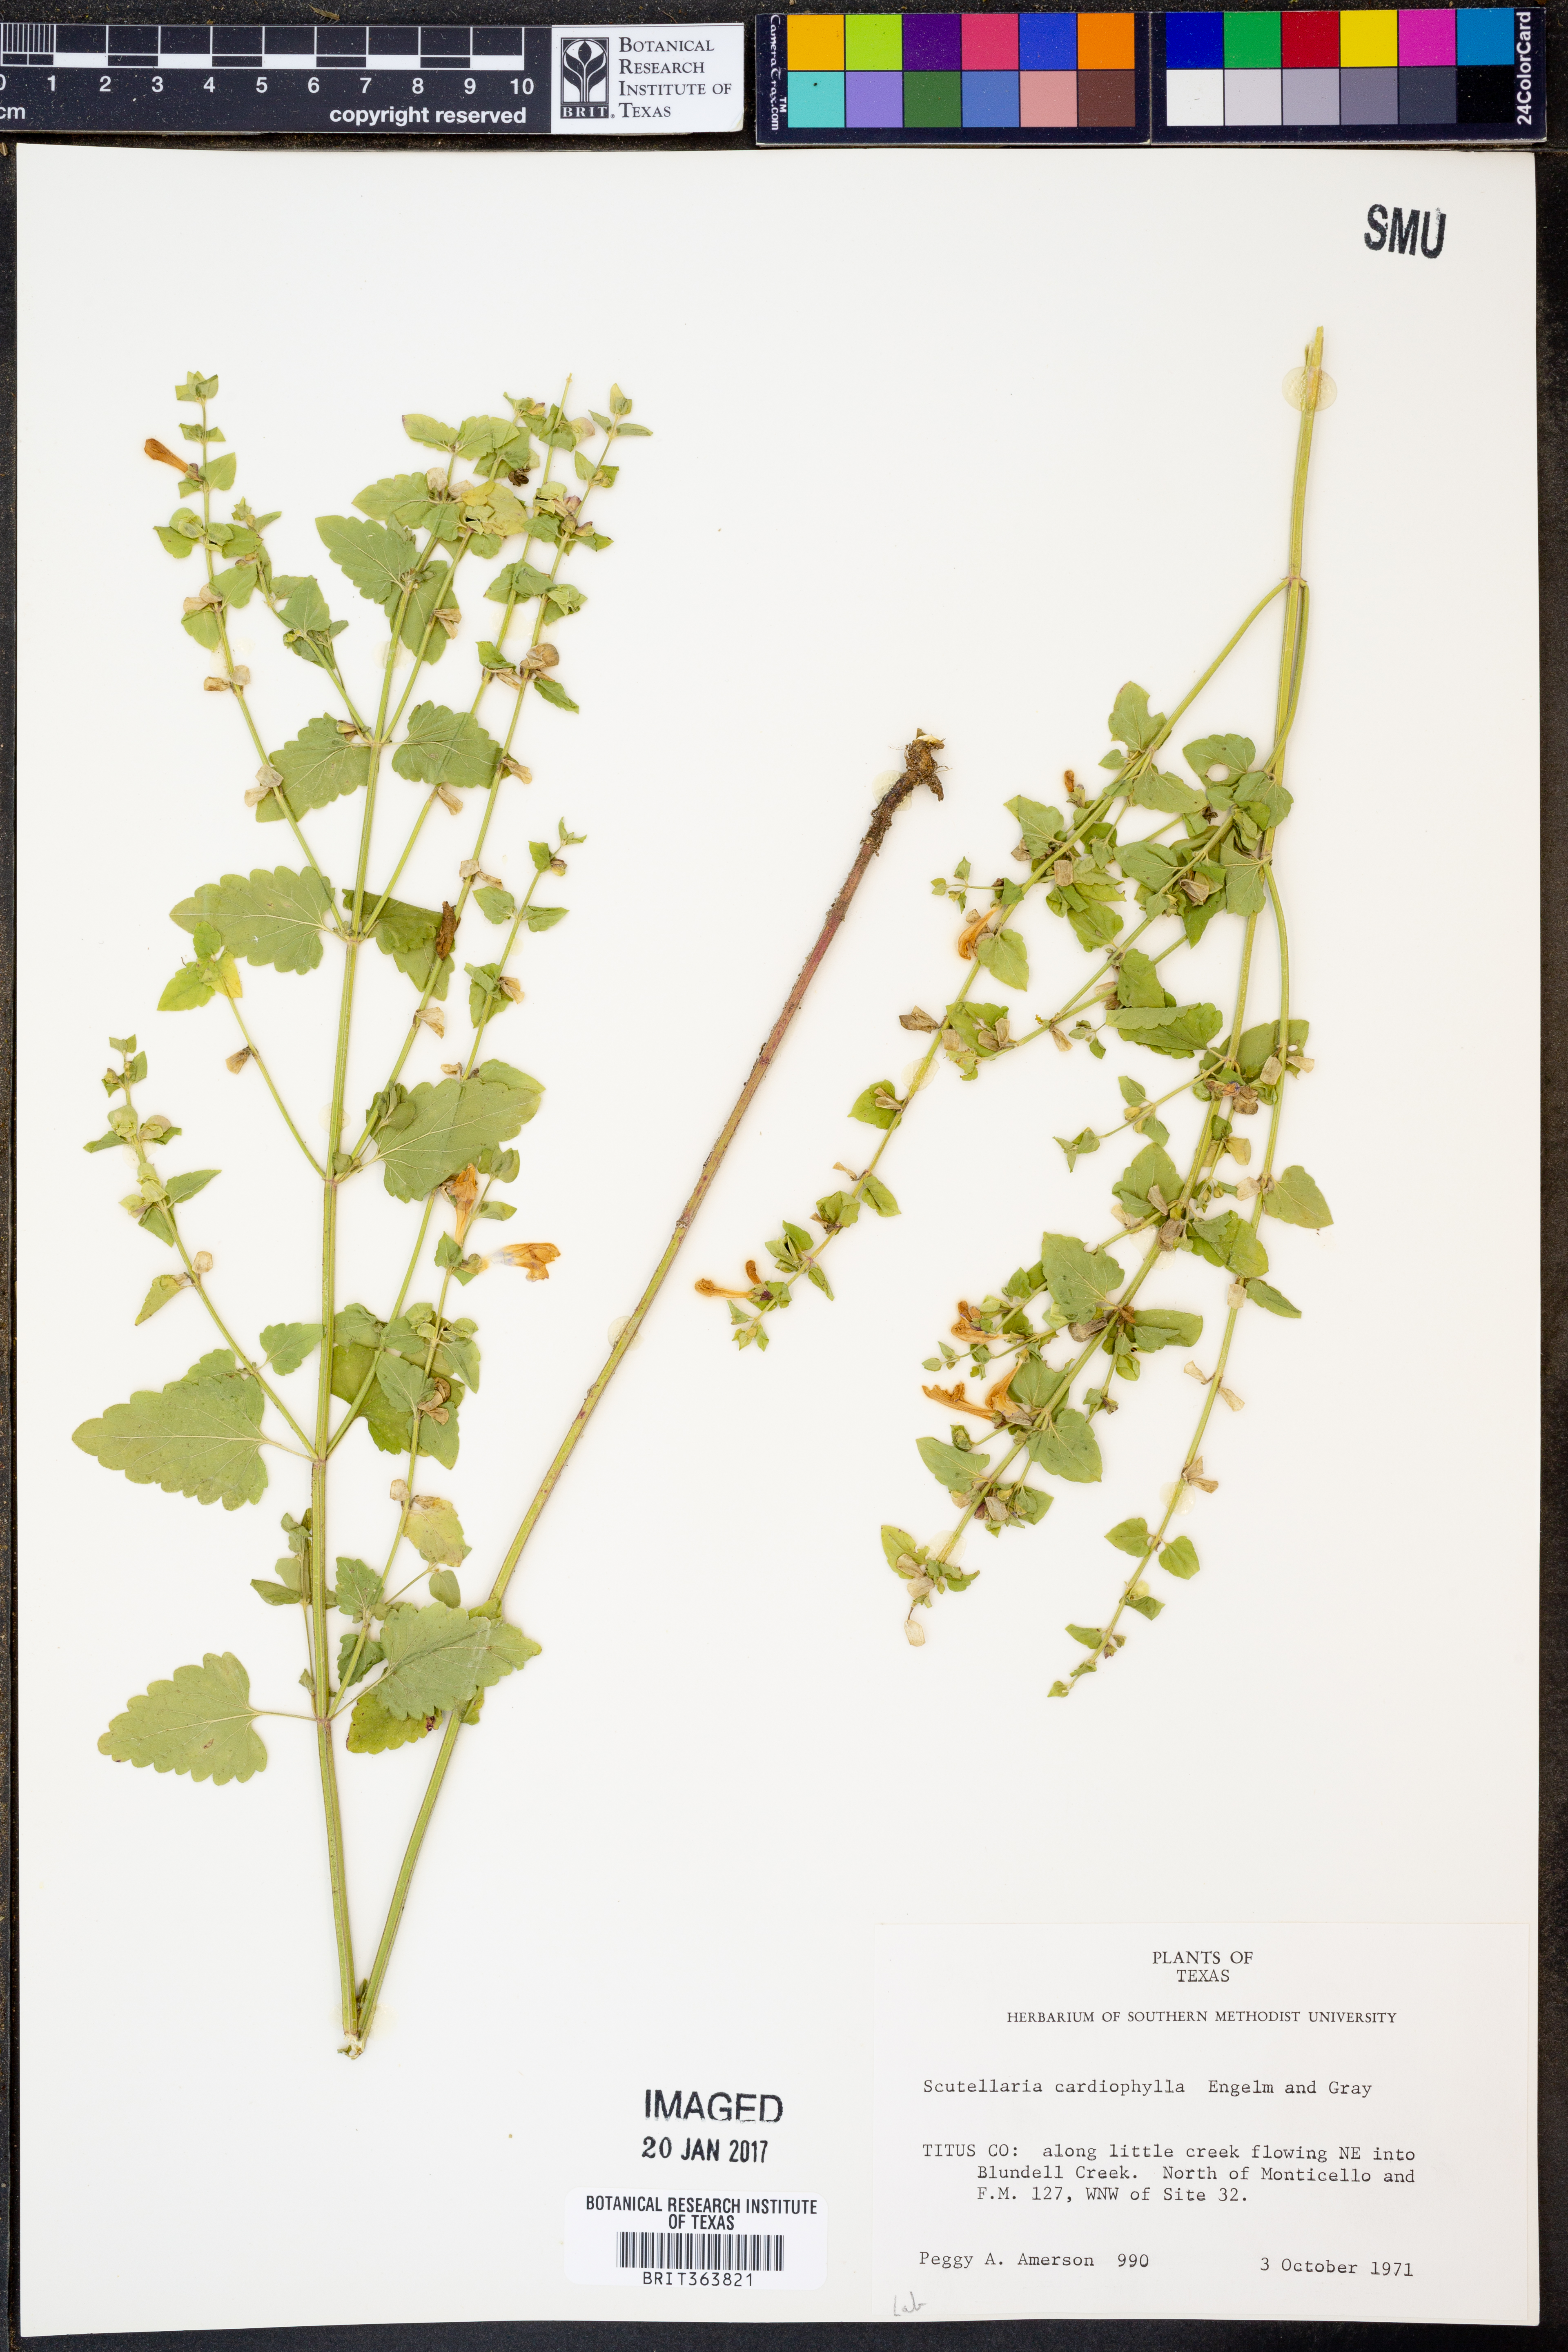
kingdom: Plantae
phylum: Tracheophyta
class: Magnoliopsida
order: Lamiales
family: Lamiaceae
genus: Scutellaria
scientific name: Scutellaria cardiophylla
